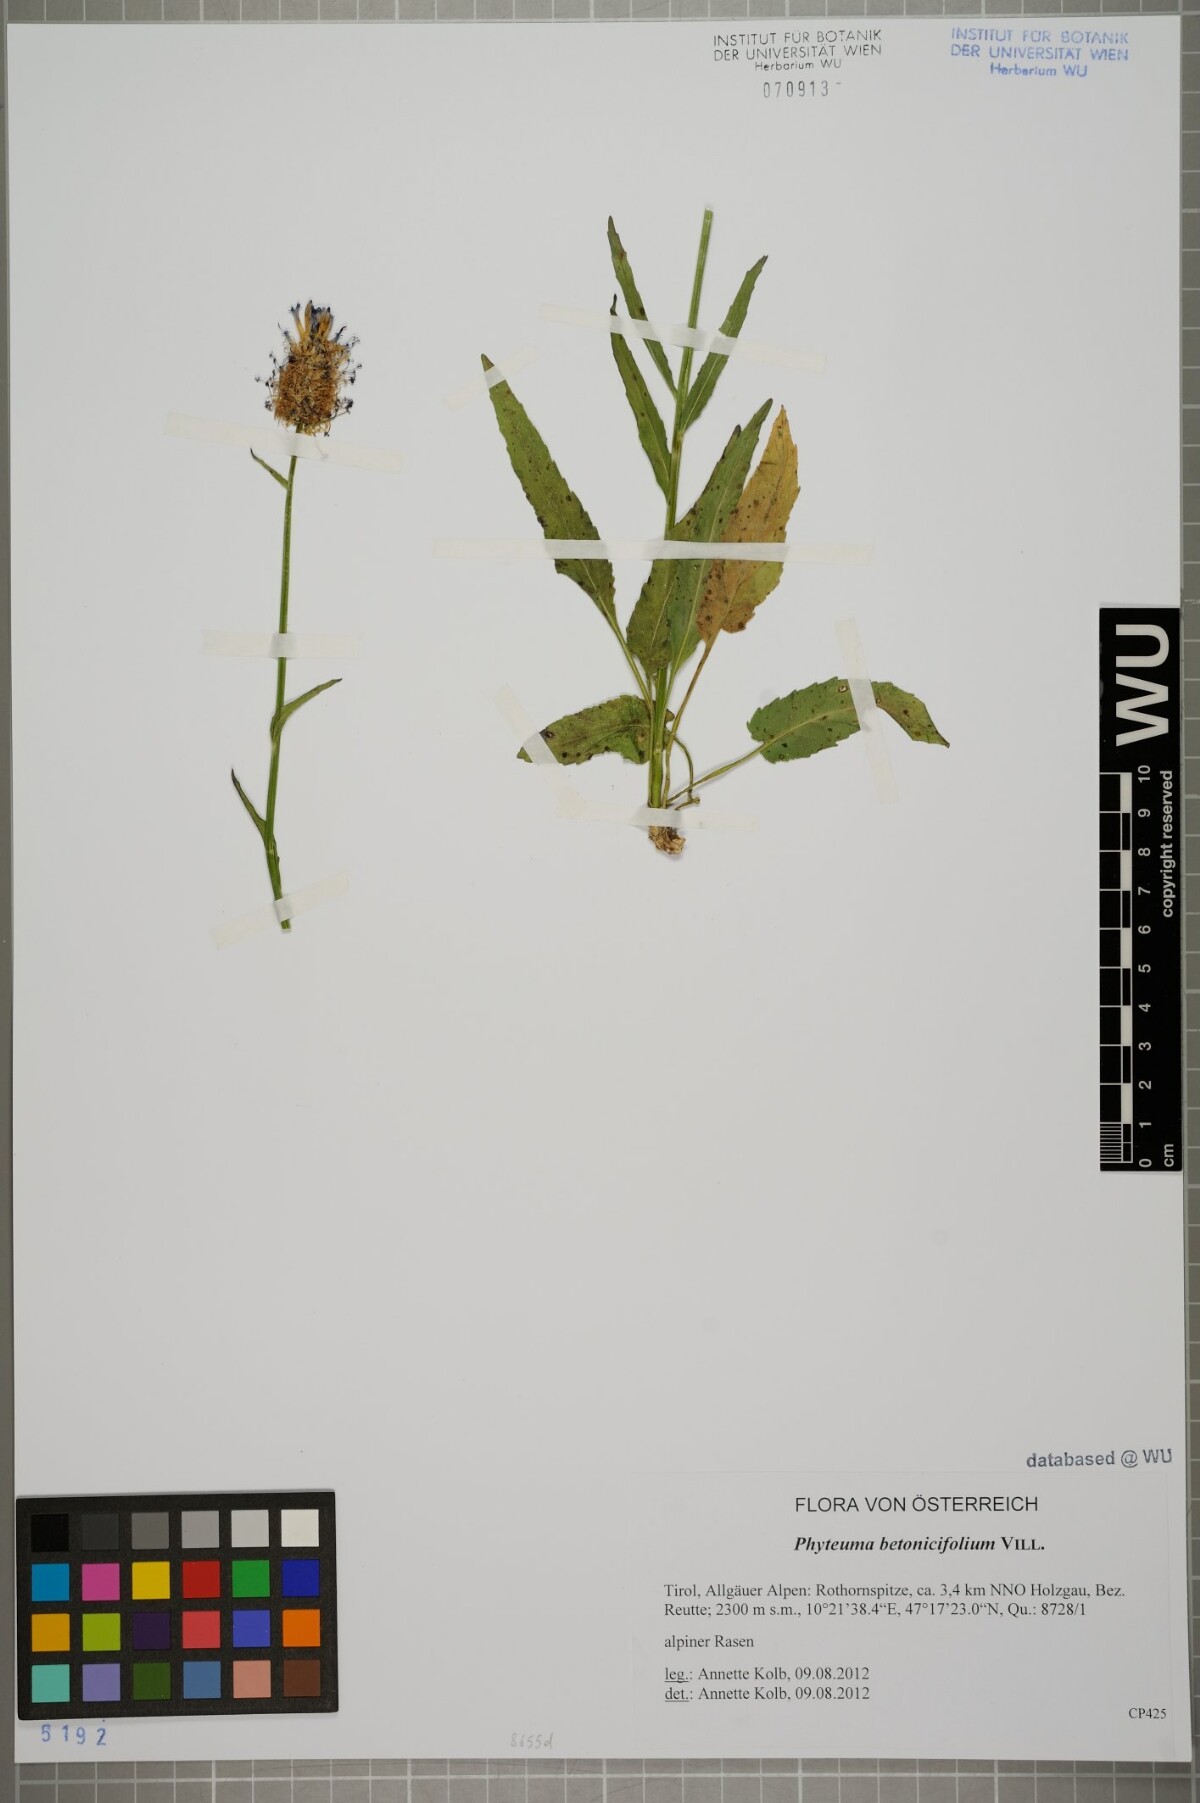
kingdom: Plantae
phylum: Tracheophyta
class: Magnoliopsida
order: Asterales
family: Campanulaceae
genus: Phyteuma
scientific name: Phyteuma betonicifolium
